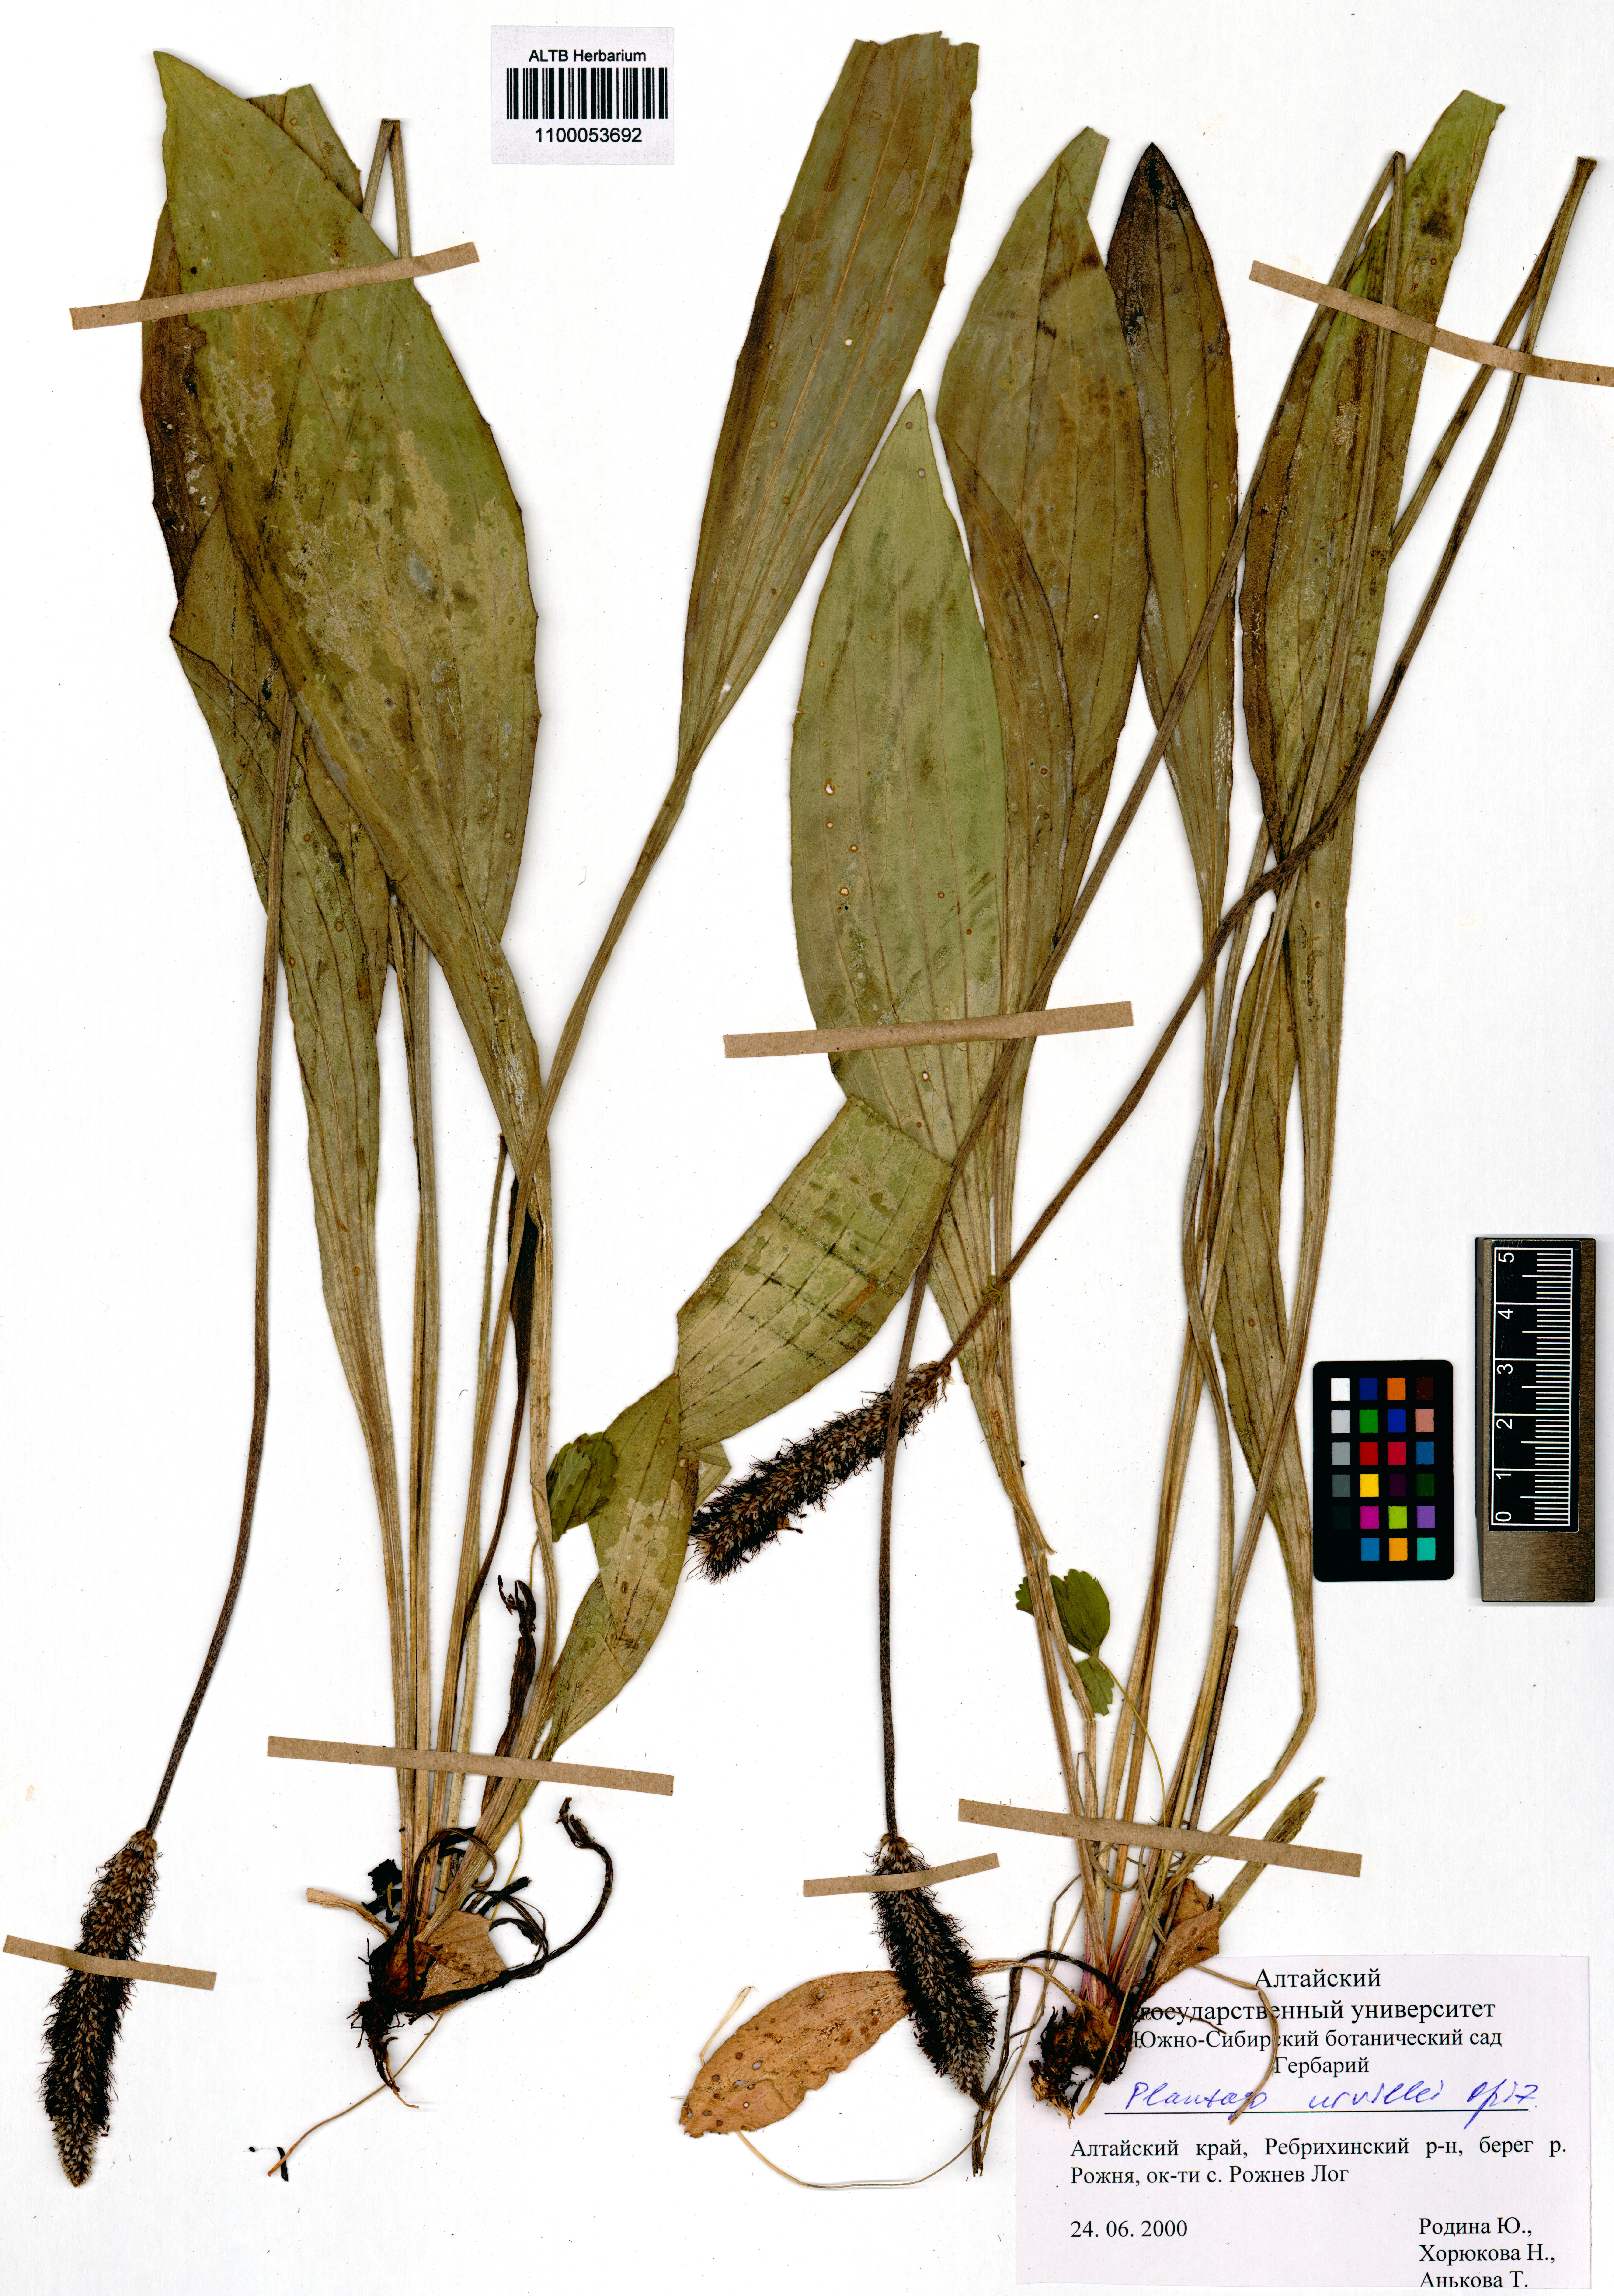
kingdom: Plantae
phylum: Tracheophyta
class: Magnoliopsida
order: Lamiales
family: Plantaginaceae
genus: Plantago
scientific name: Plantago urvillei
